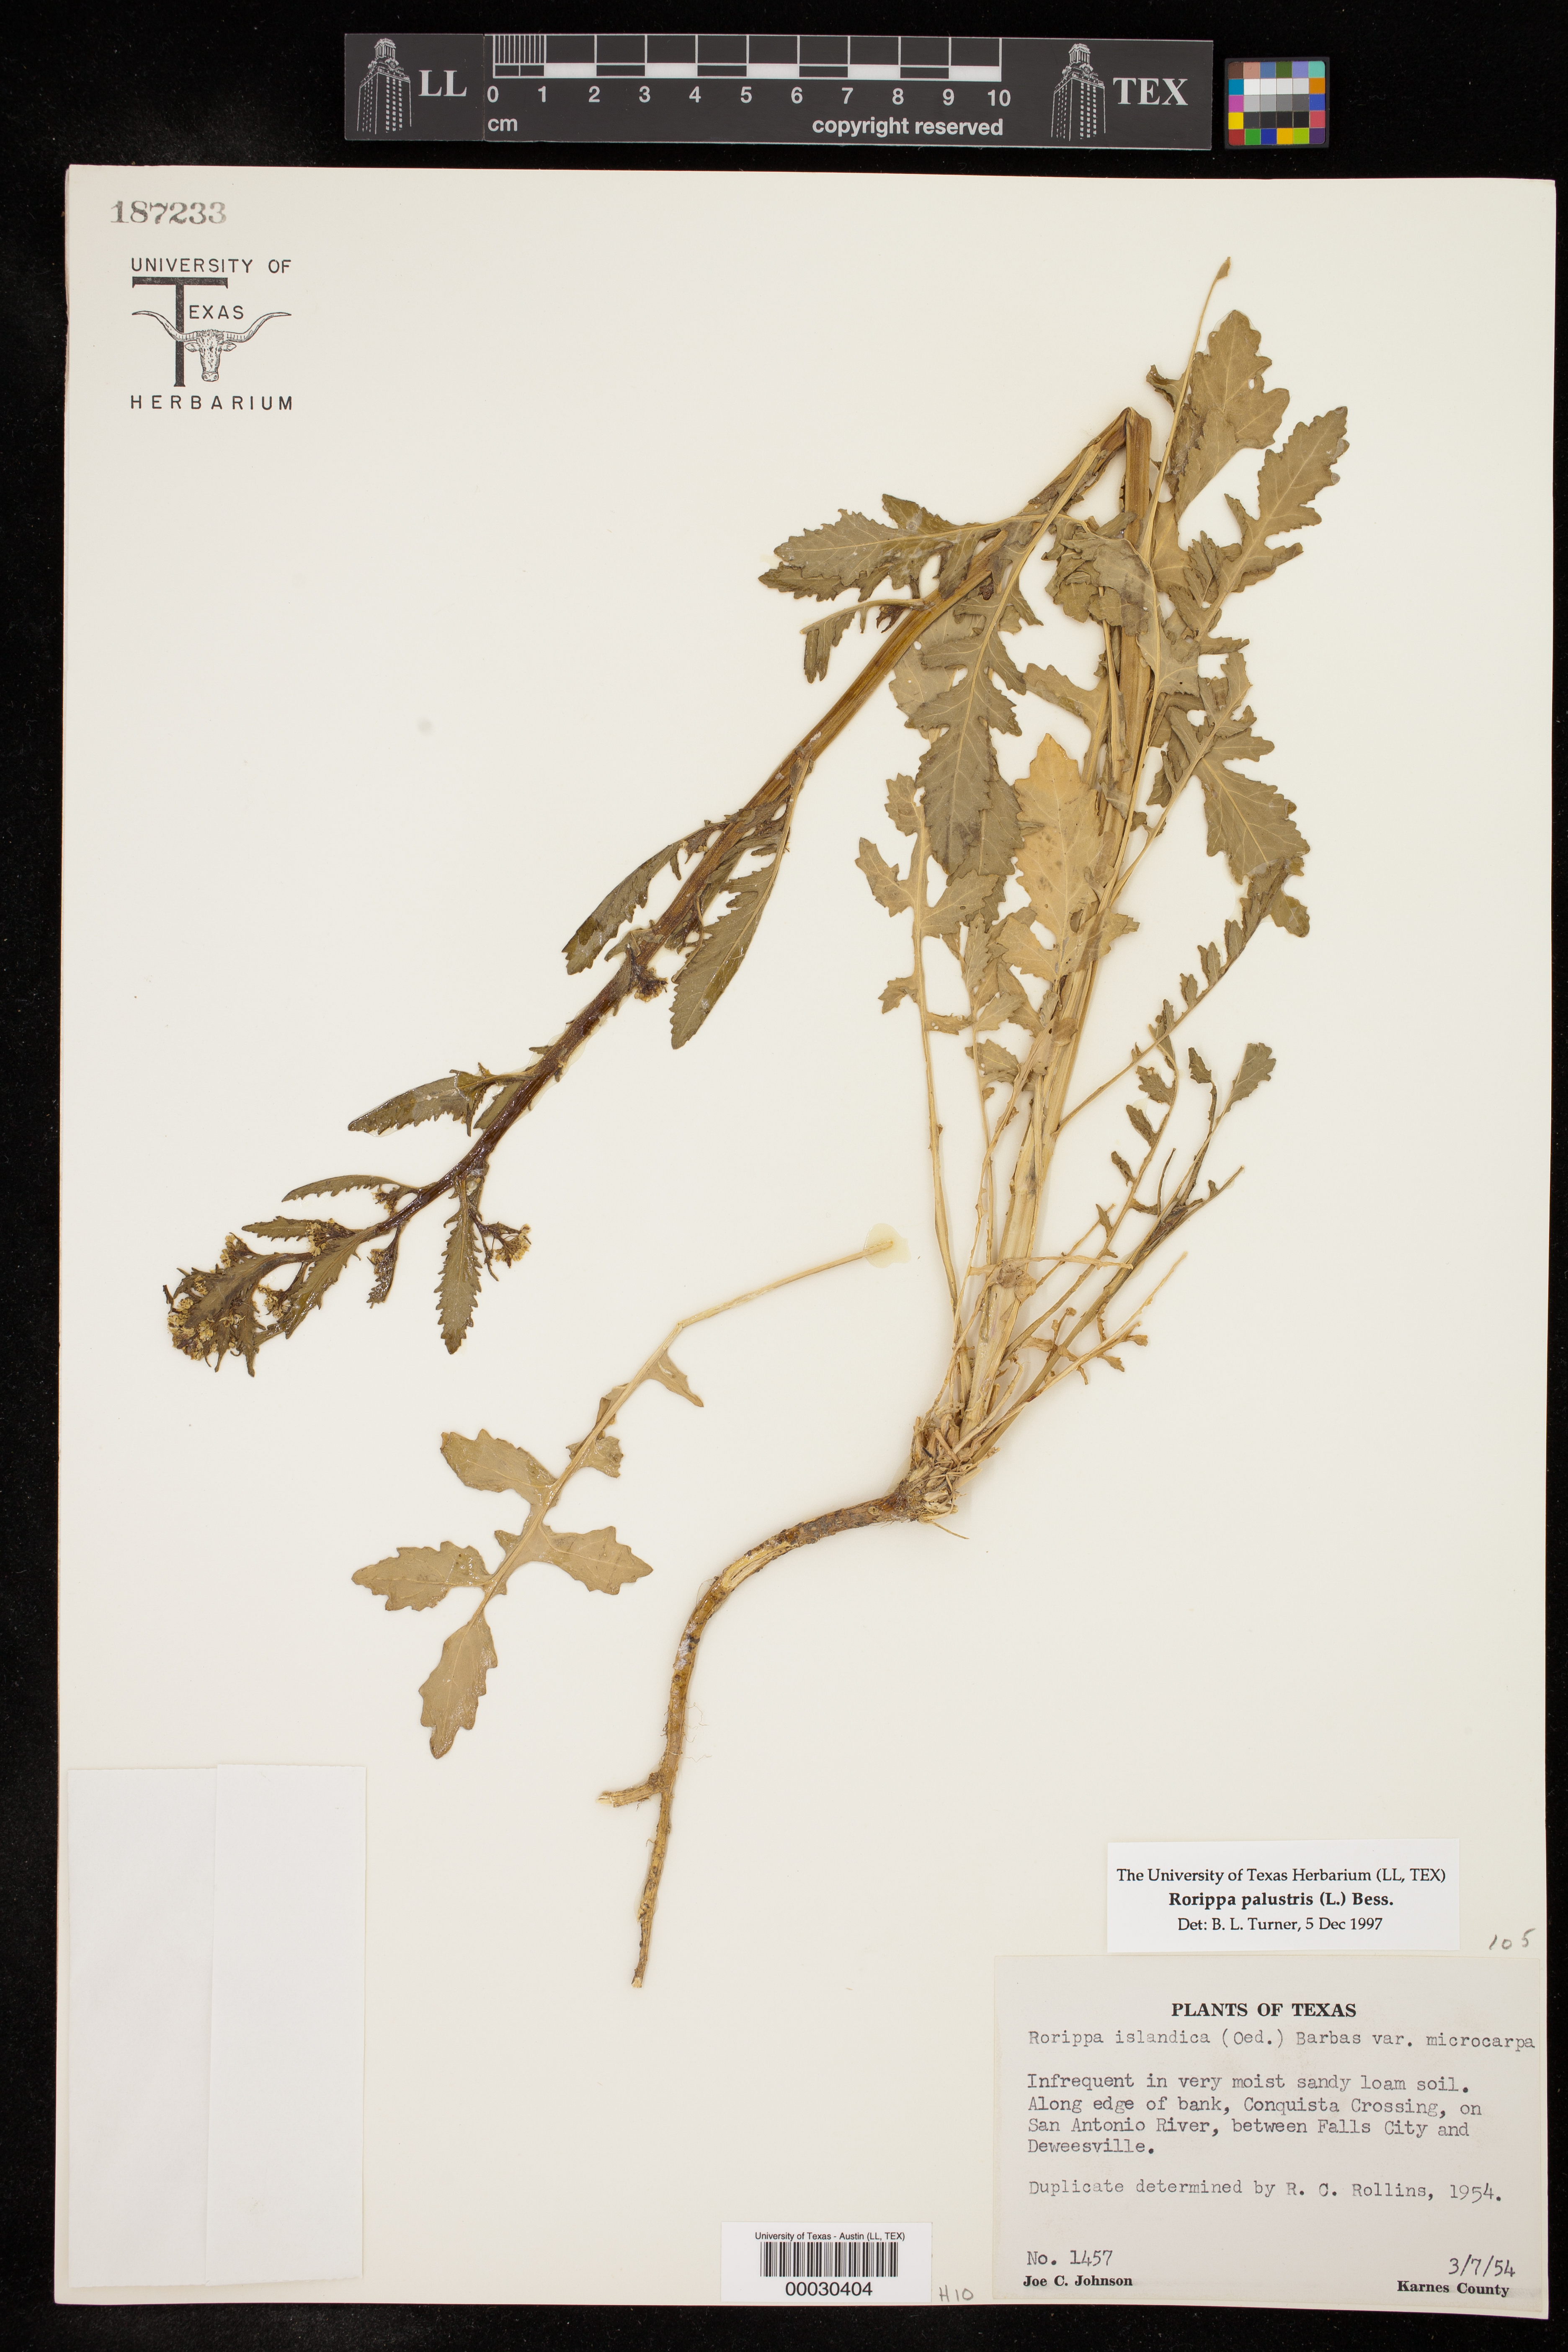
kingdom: Plantae
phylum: Tracheophyta
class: Magnoliopsida
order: Brassicales
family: Brassicaceae
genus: Rorippa
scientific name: Rorippa palustris
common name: Marsh yellow-cress
